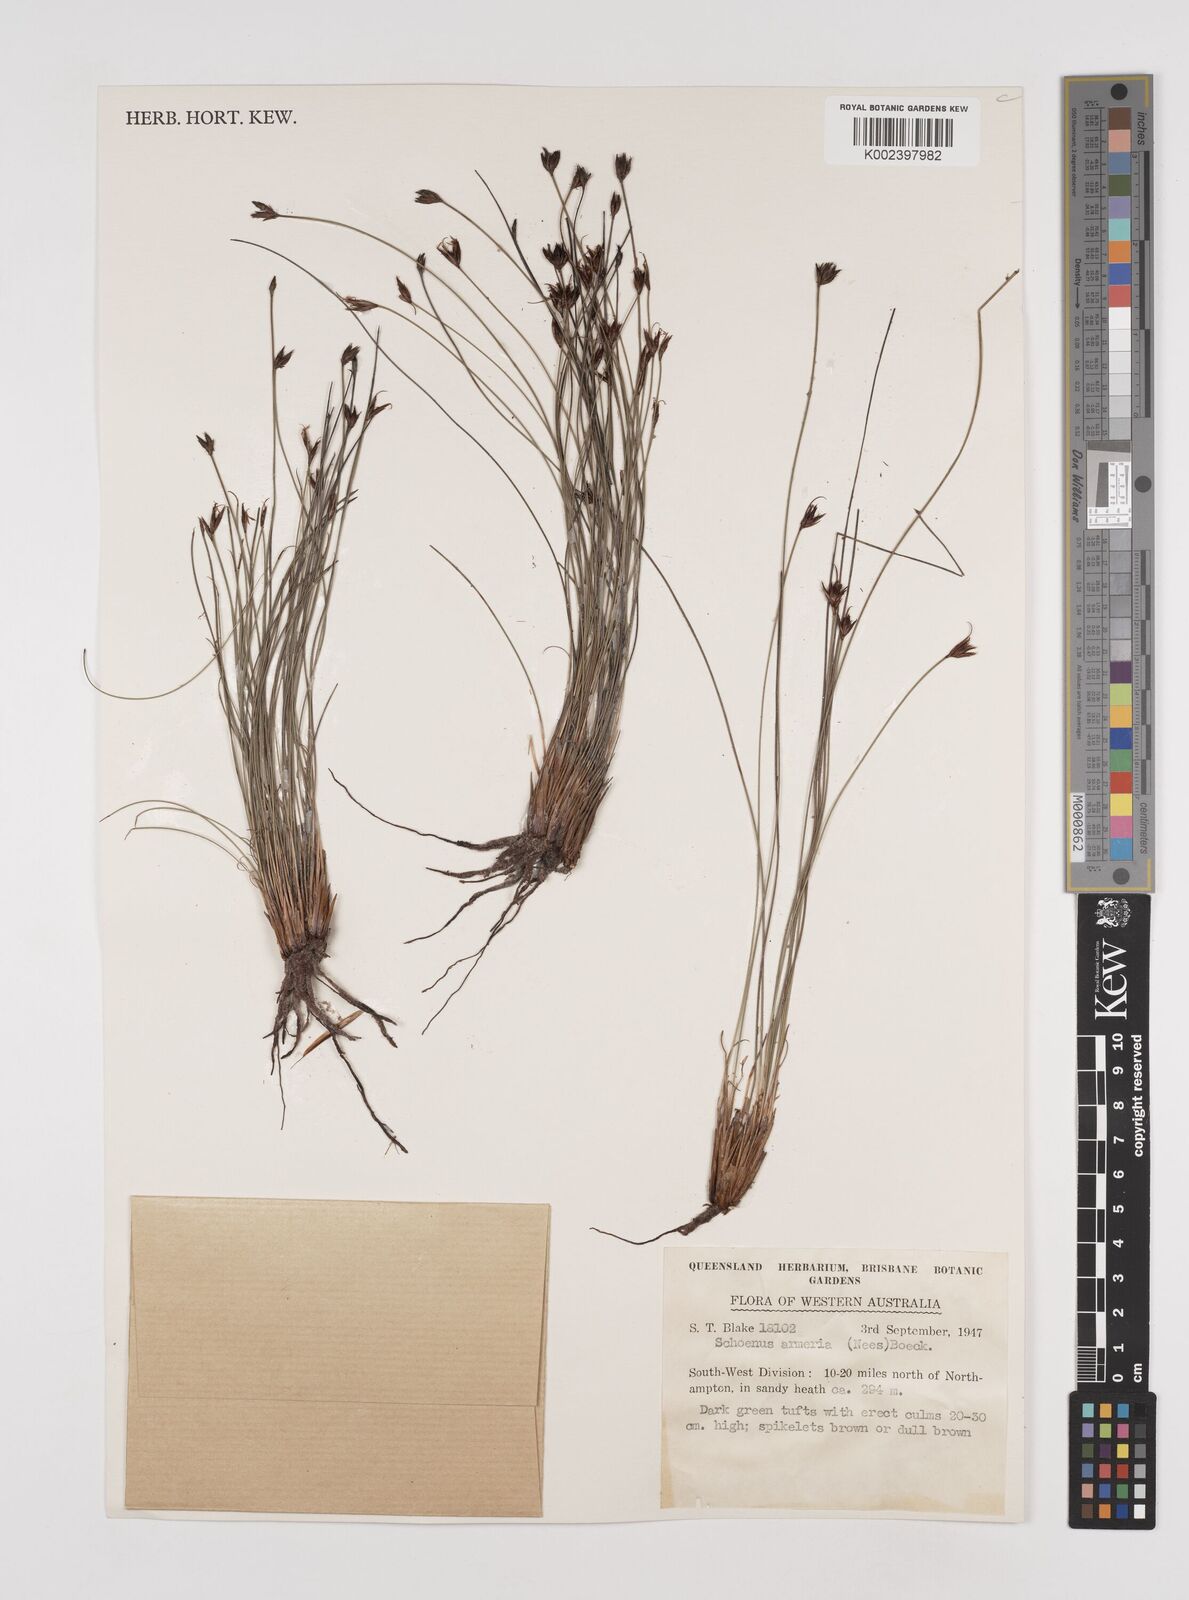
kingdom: Plantae
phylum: Tracheophyta
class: Liliopsida
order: Poales
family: Cyperaceae
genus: Schoenus
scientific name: Schoenus globifer
